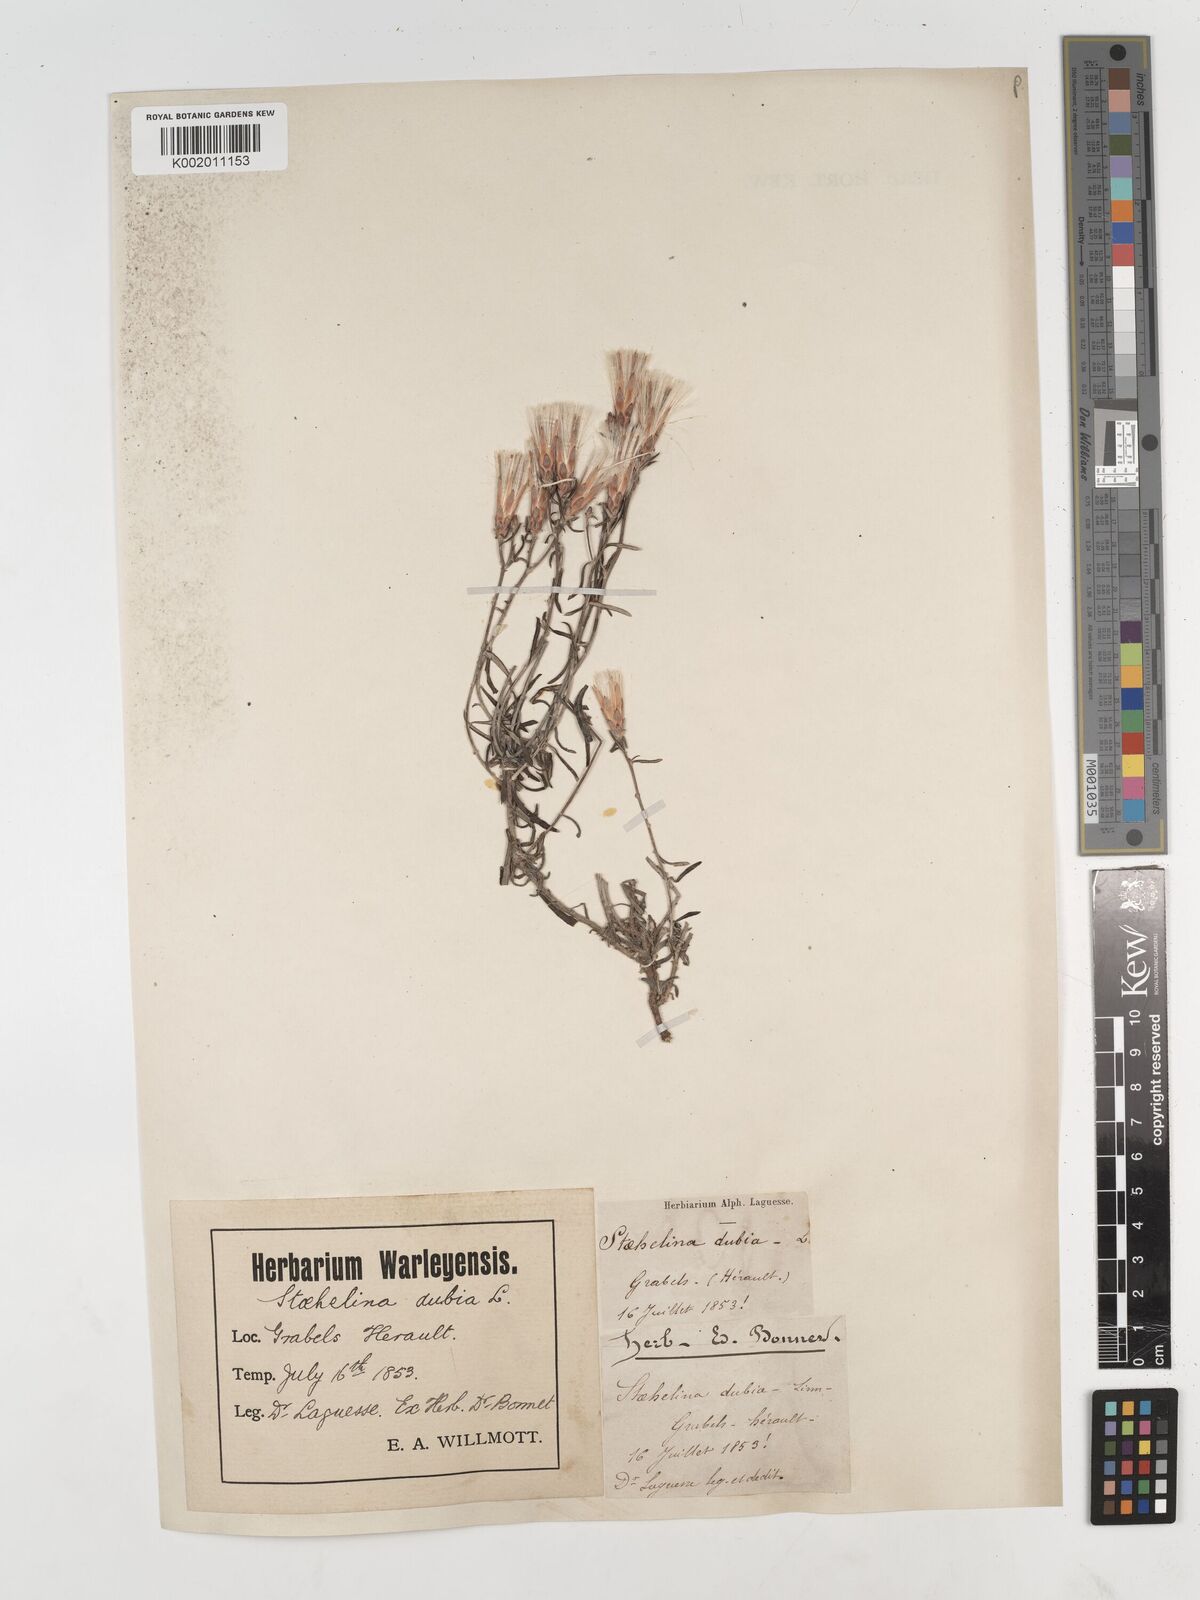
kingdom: Plantae
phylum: Tracheophyta
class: Magnoliopsida
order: Asterales
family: Asteraceae
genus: Staehelina
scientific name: Staehelina dubia
